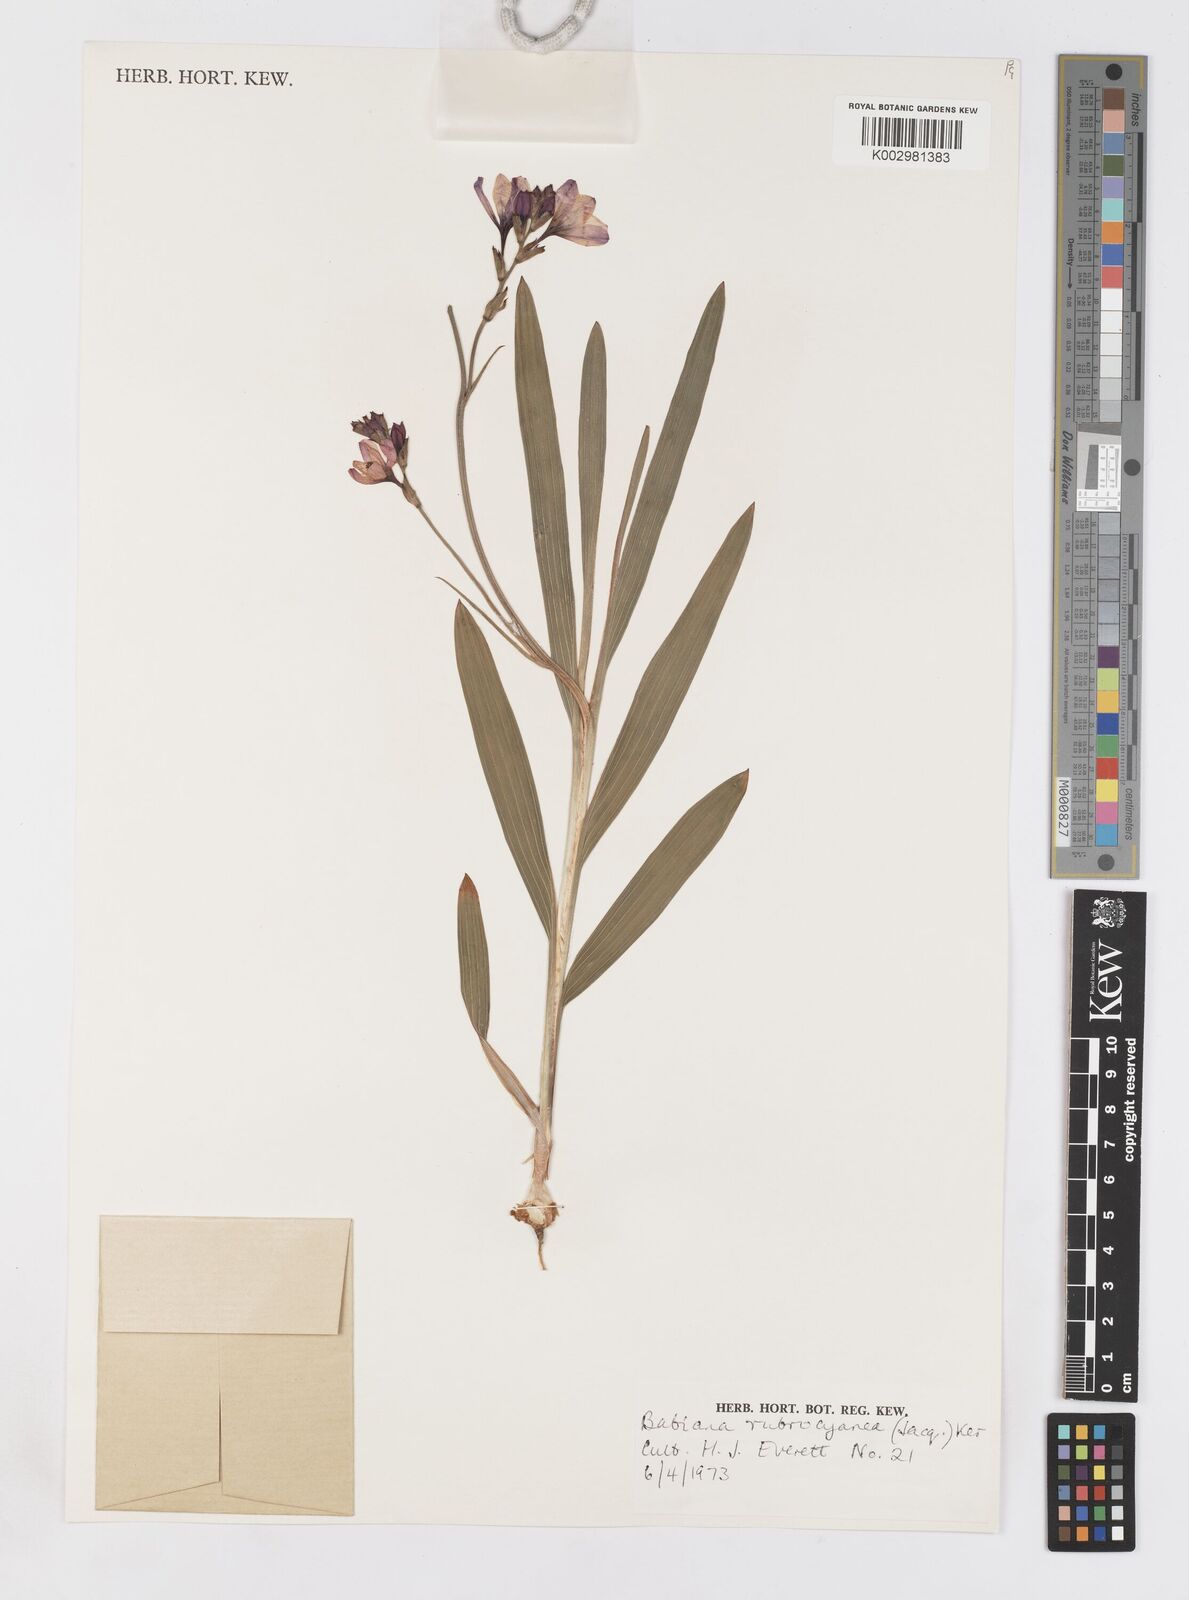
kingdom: Plantae
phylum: Tracheophyta
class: Liliopsida
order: Asparagales
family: Iridaceae
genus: Babiana
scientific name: Babiana rubrocyanea
